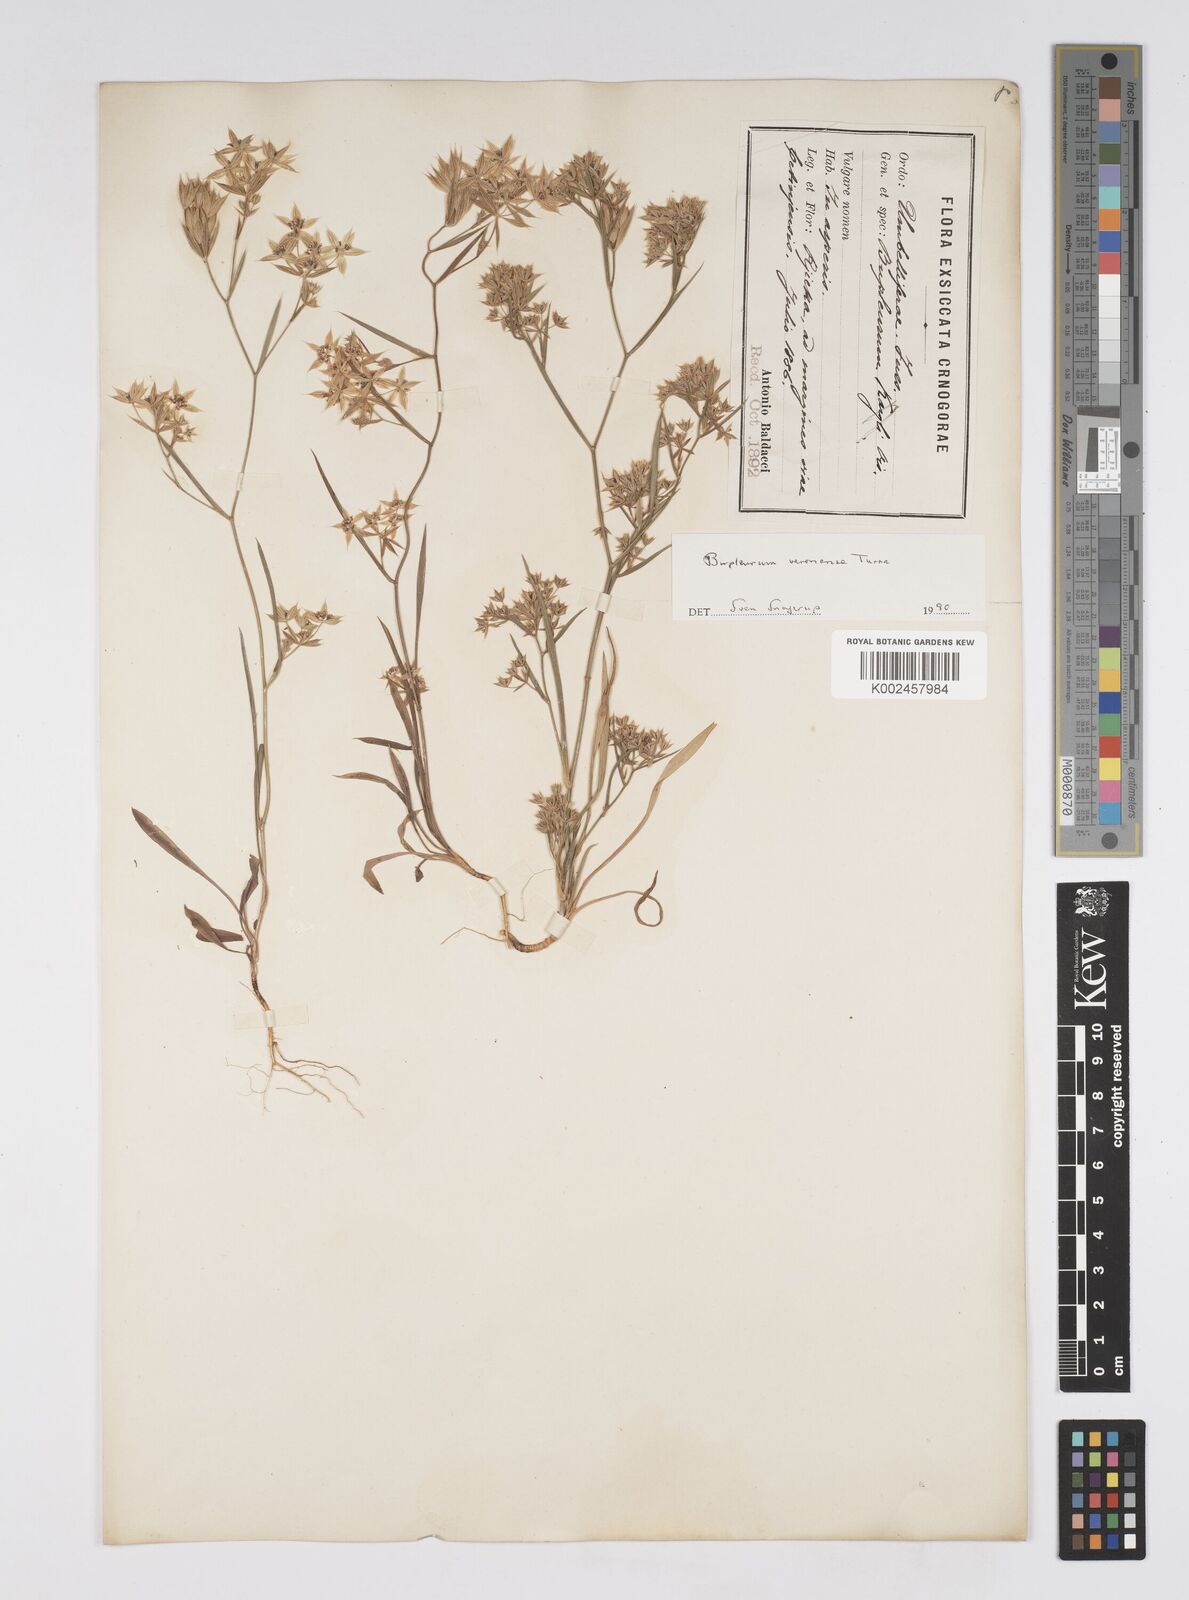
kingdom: Plantae
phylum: Tracheophyta
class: Magnoliopsida
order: Apiales
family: Apiaceae
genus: Bupleurum
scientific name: Bupleurum glumaceum
